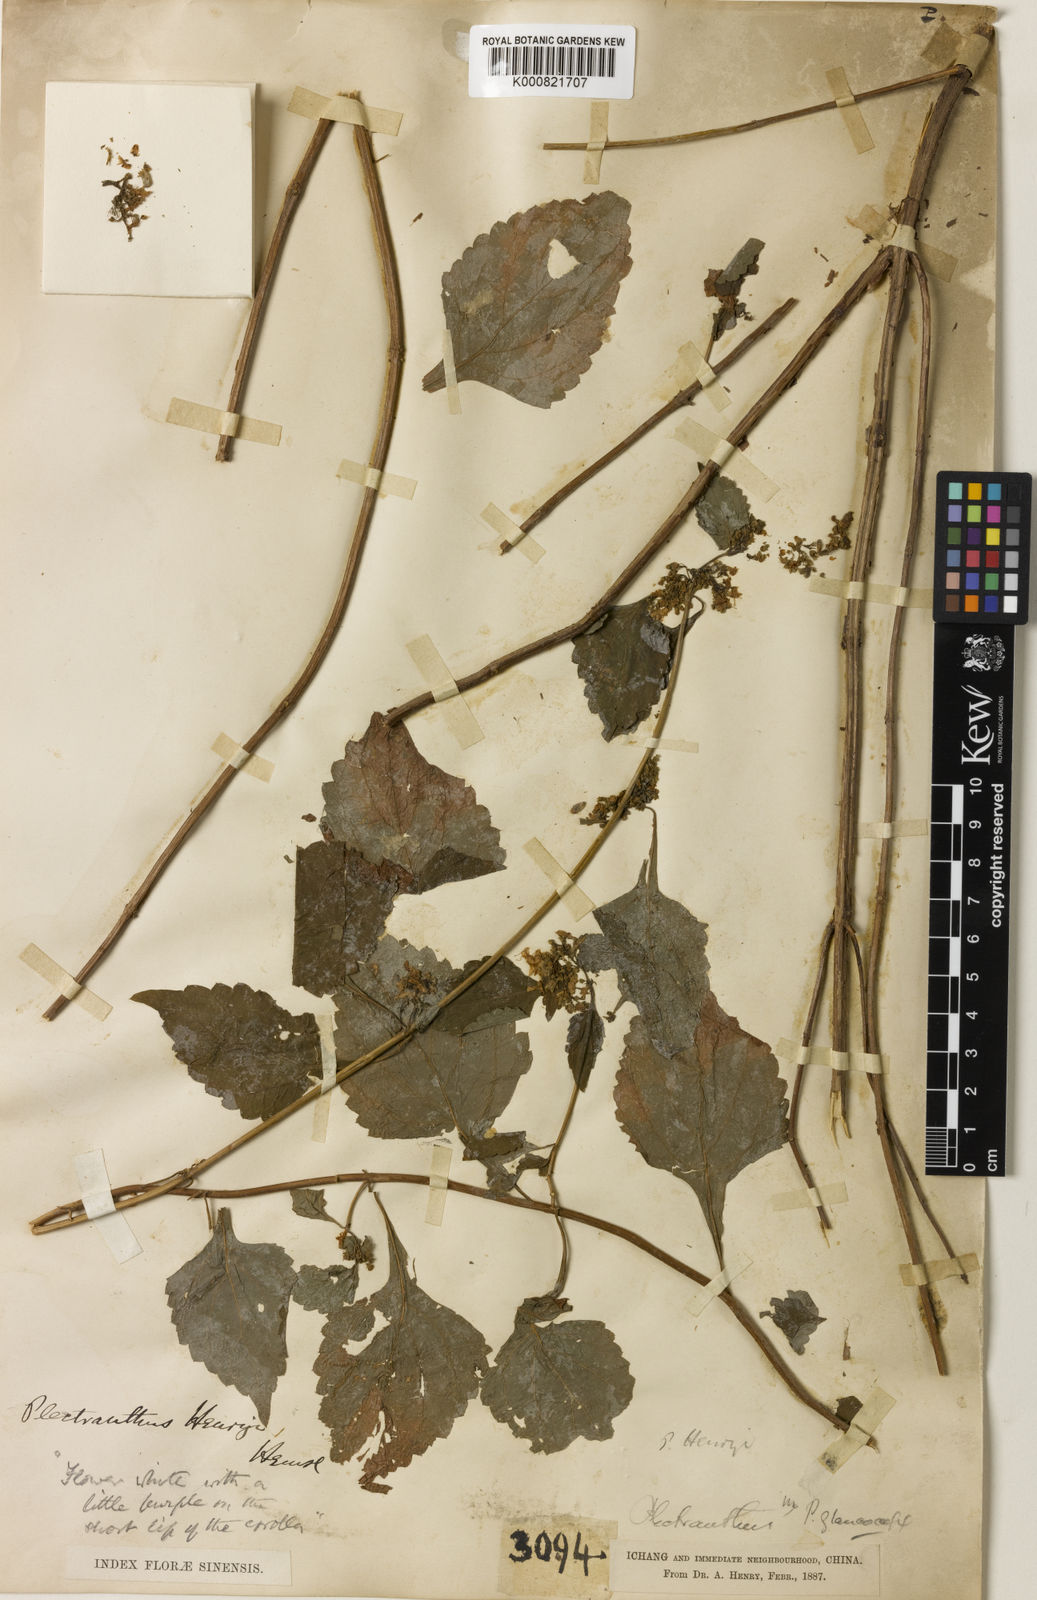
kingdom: Plantae
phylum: Tracheophyta
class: Magnoliopsida
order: Lamiales
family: Lamiaceae
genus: Isodon
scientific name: Isodon
